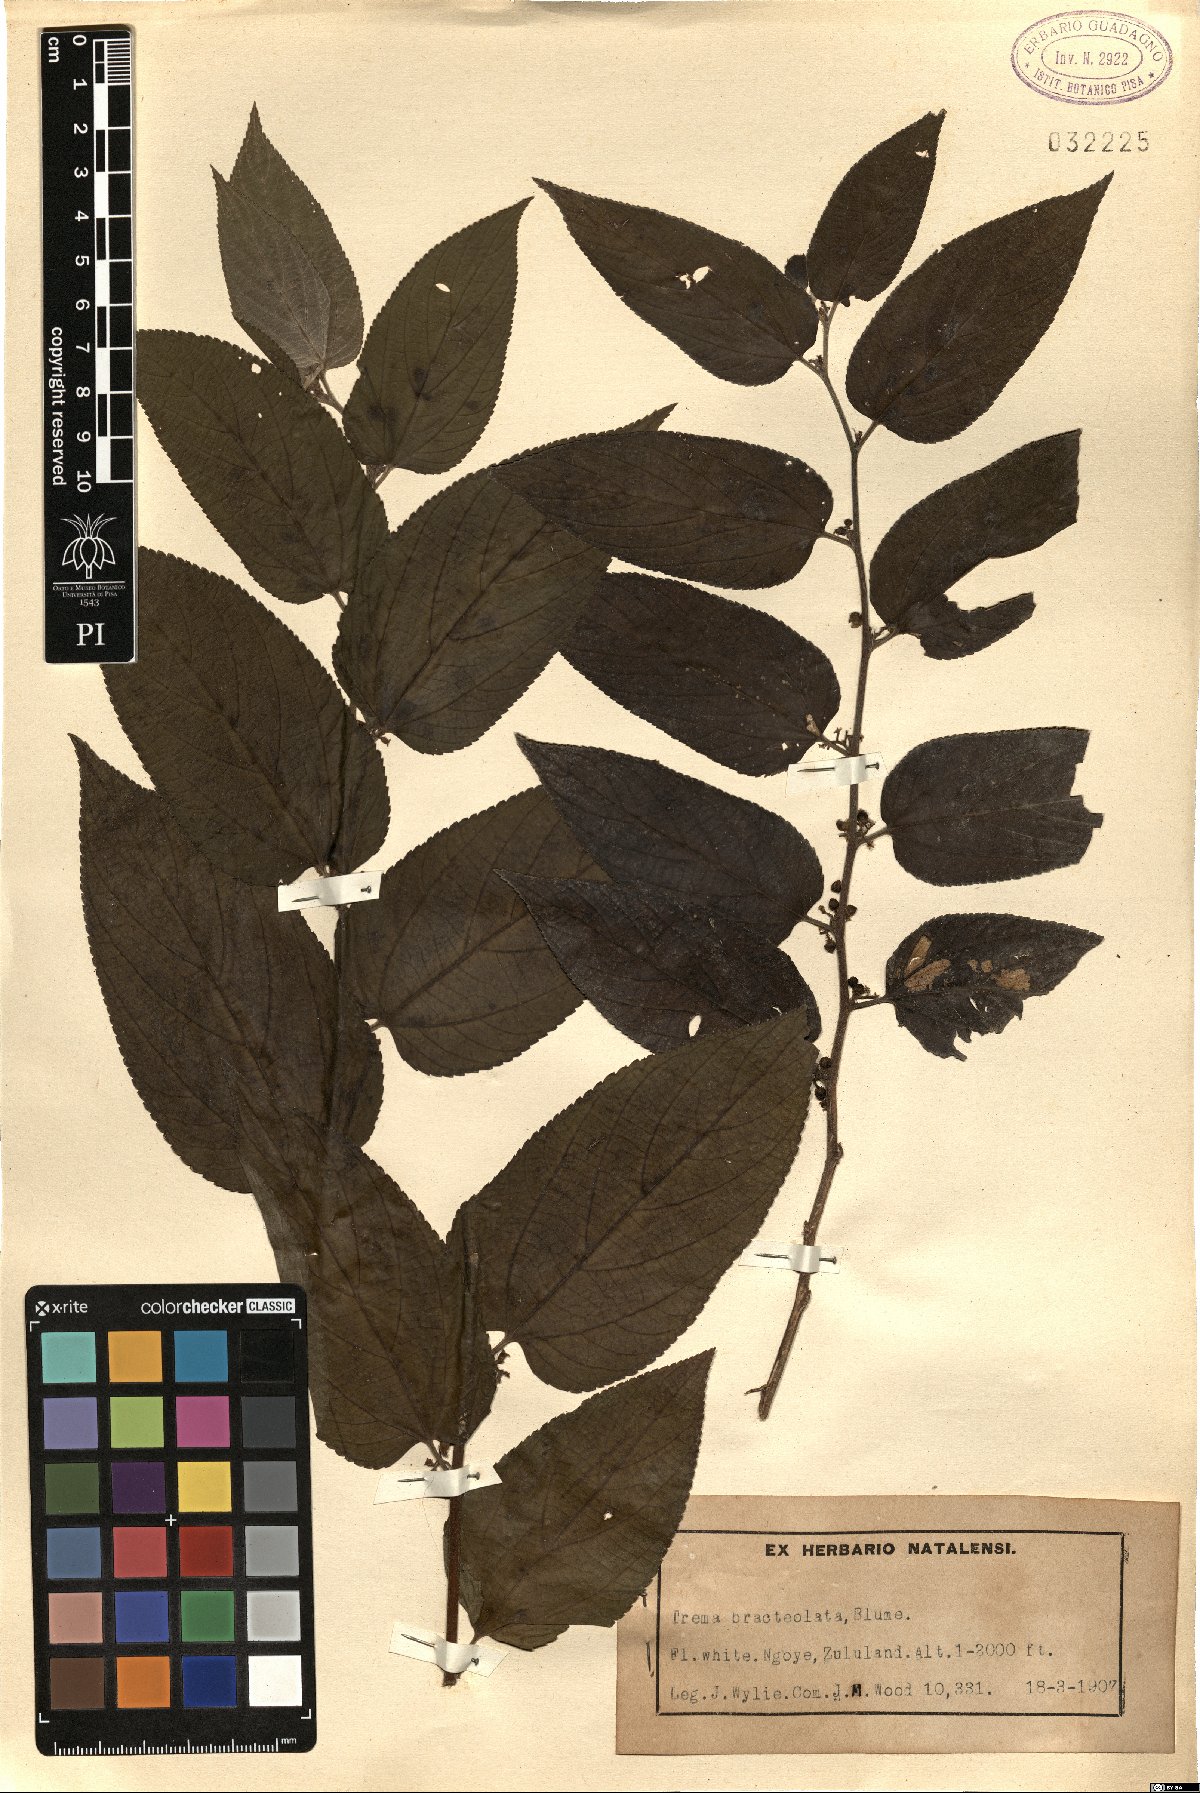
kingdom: Plantae
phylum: Tracheophyta
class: Magnoliopsida
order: Rosales
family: Cannabaceae
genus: Trema
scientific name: Trema orientale
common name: Indian charcoal tree
